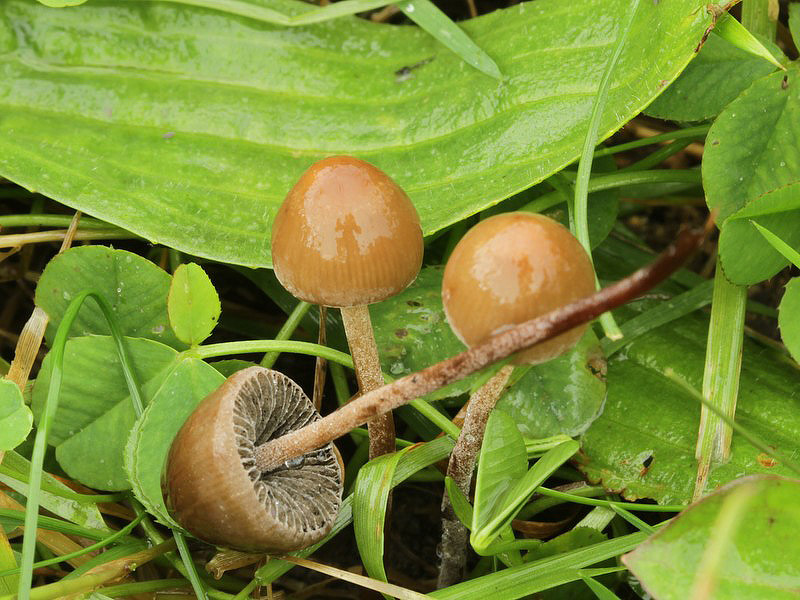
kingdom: Fungi
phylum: Basidiomycota
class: Agaricomycetes
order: Agaricales
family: Bolbitiaceae
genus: Panaeolus
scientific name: Panaeolus acuminatus
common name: høj glanshat
